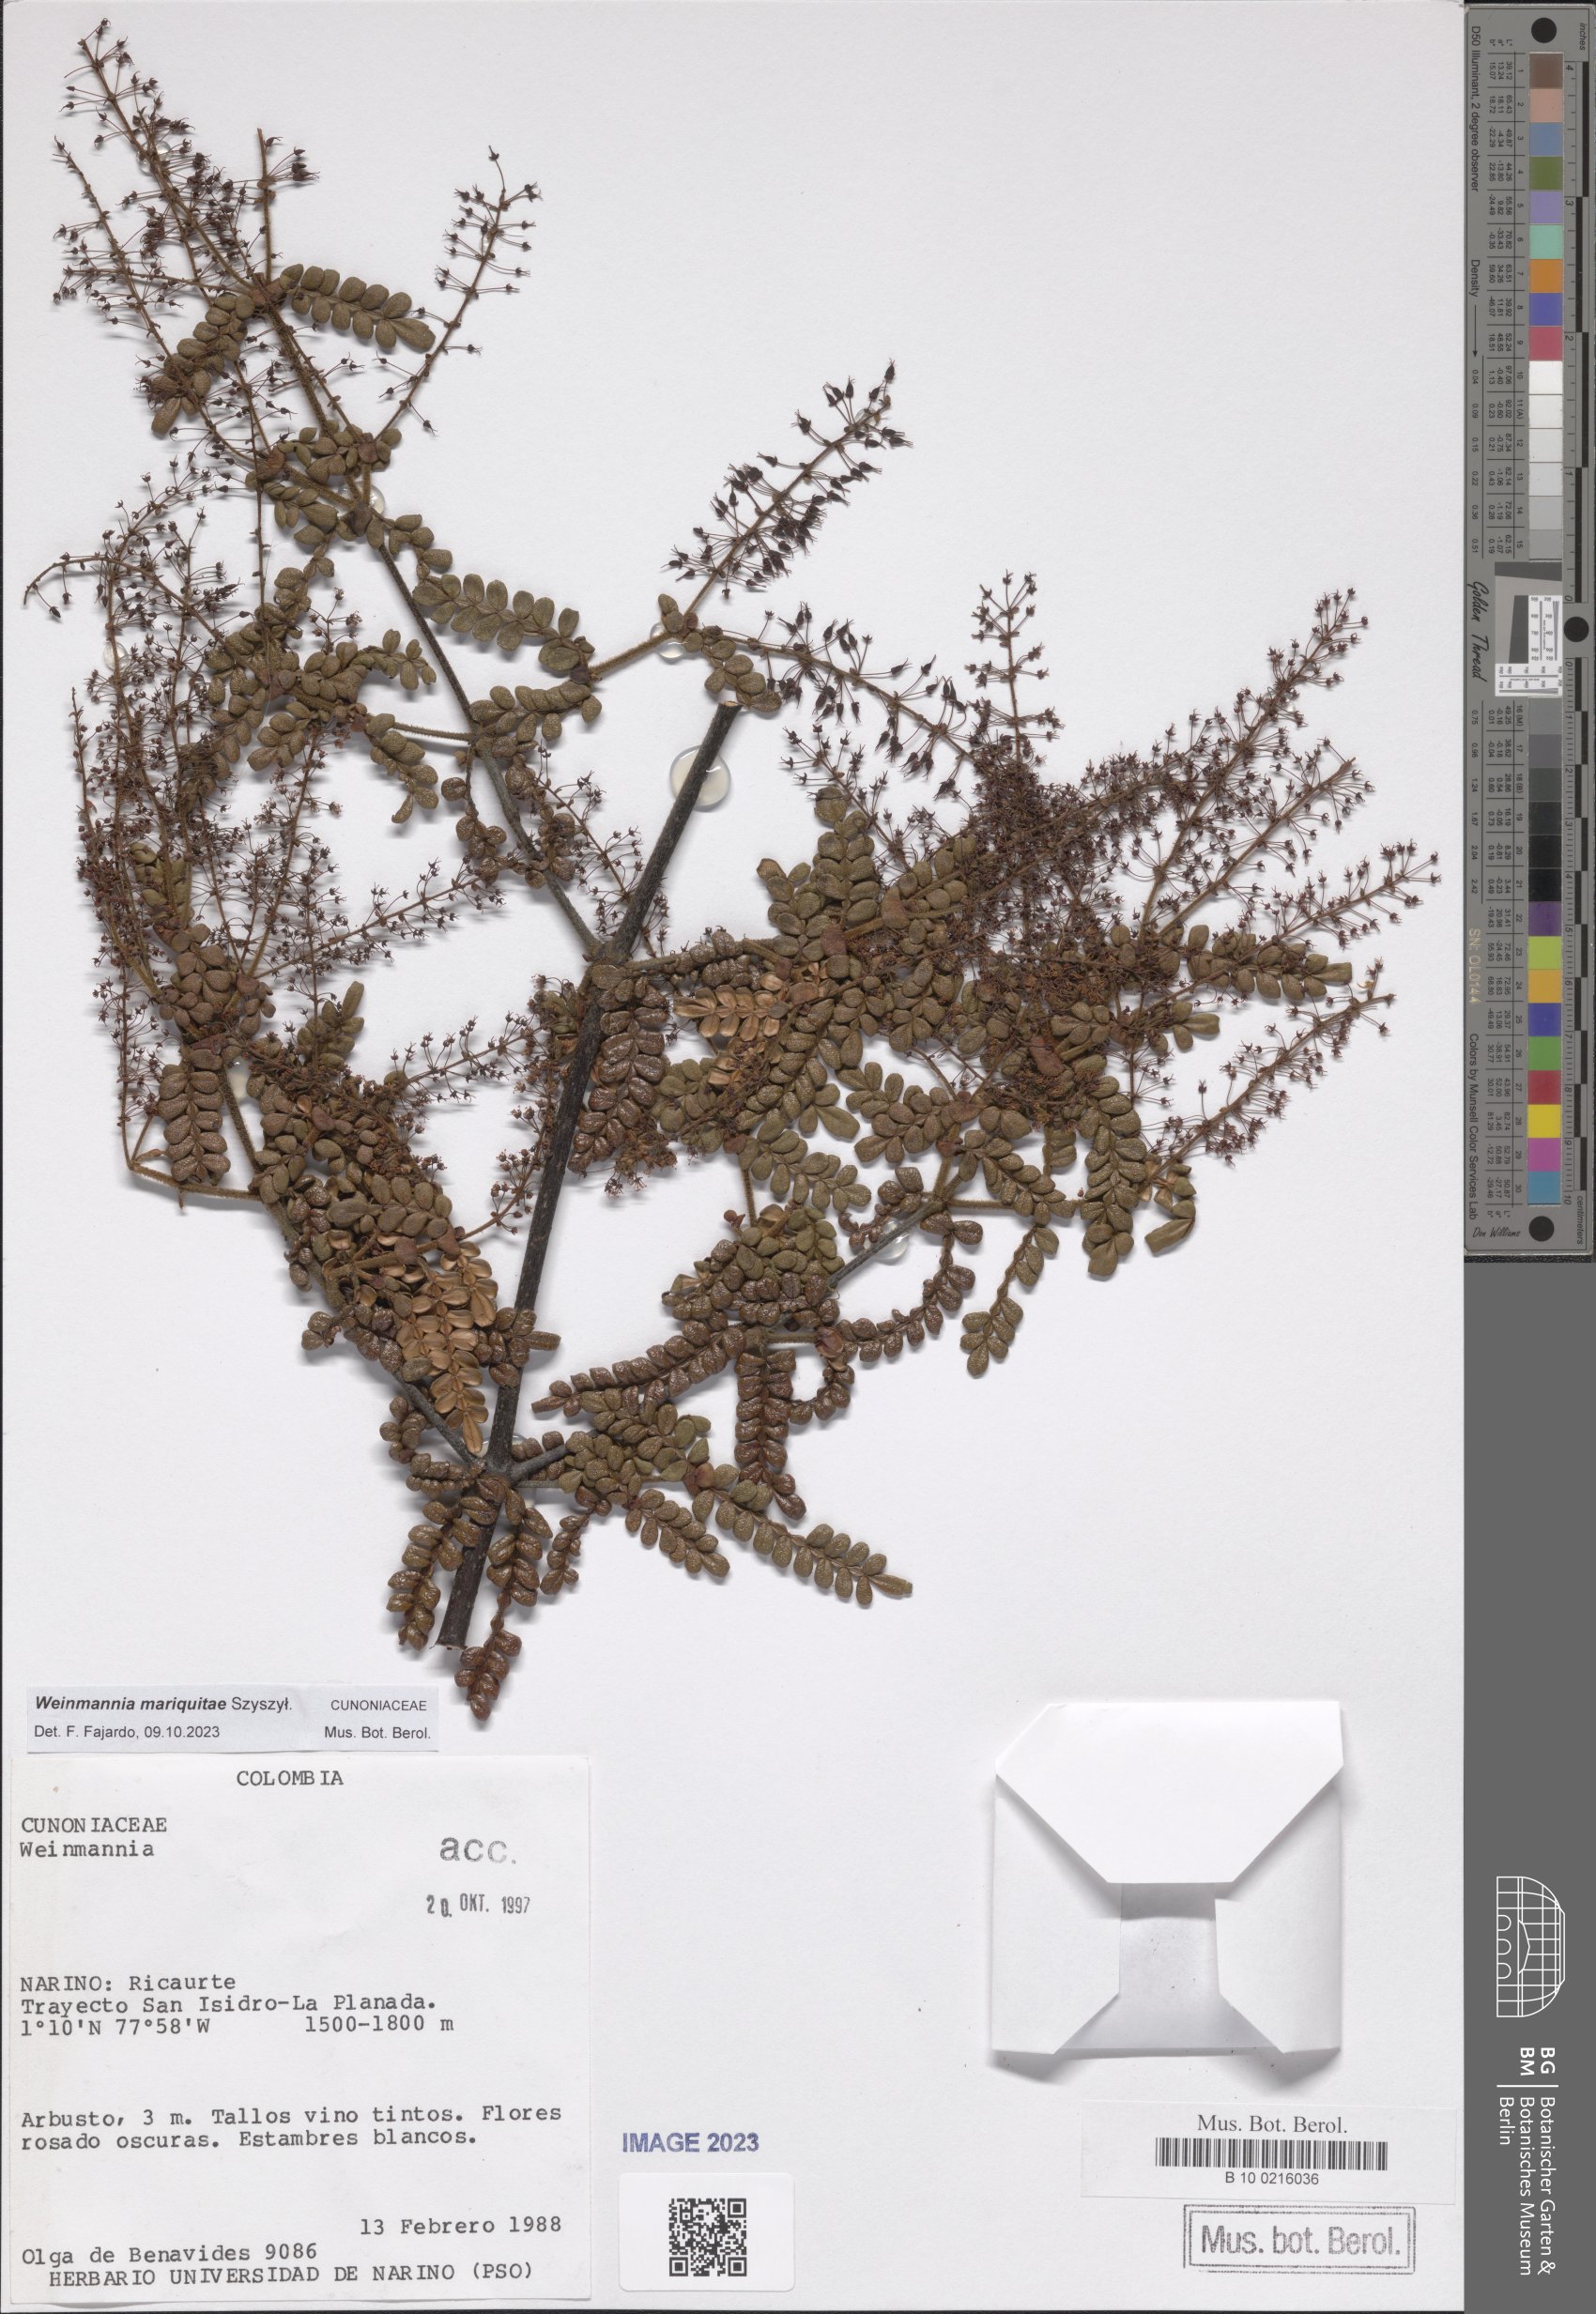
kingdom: Plantae
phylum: Tracheophyta
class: Magnoliopsida
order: Oxalidales
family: Cunoniaceae
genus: Weinmannia
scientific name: Weinmannia mariquitae
